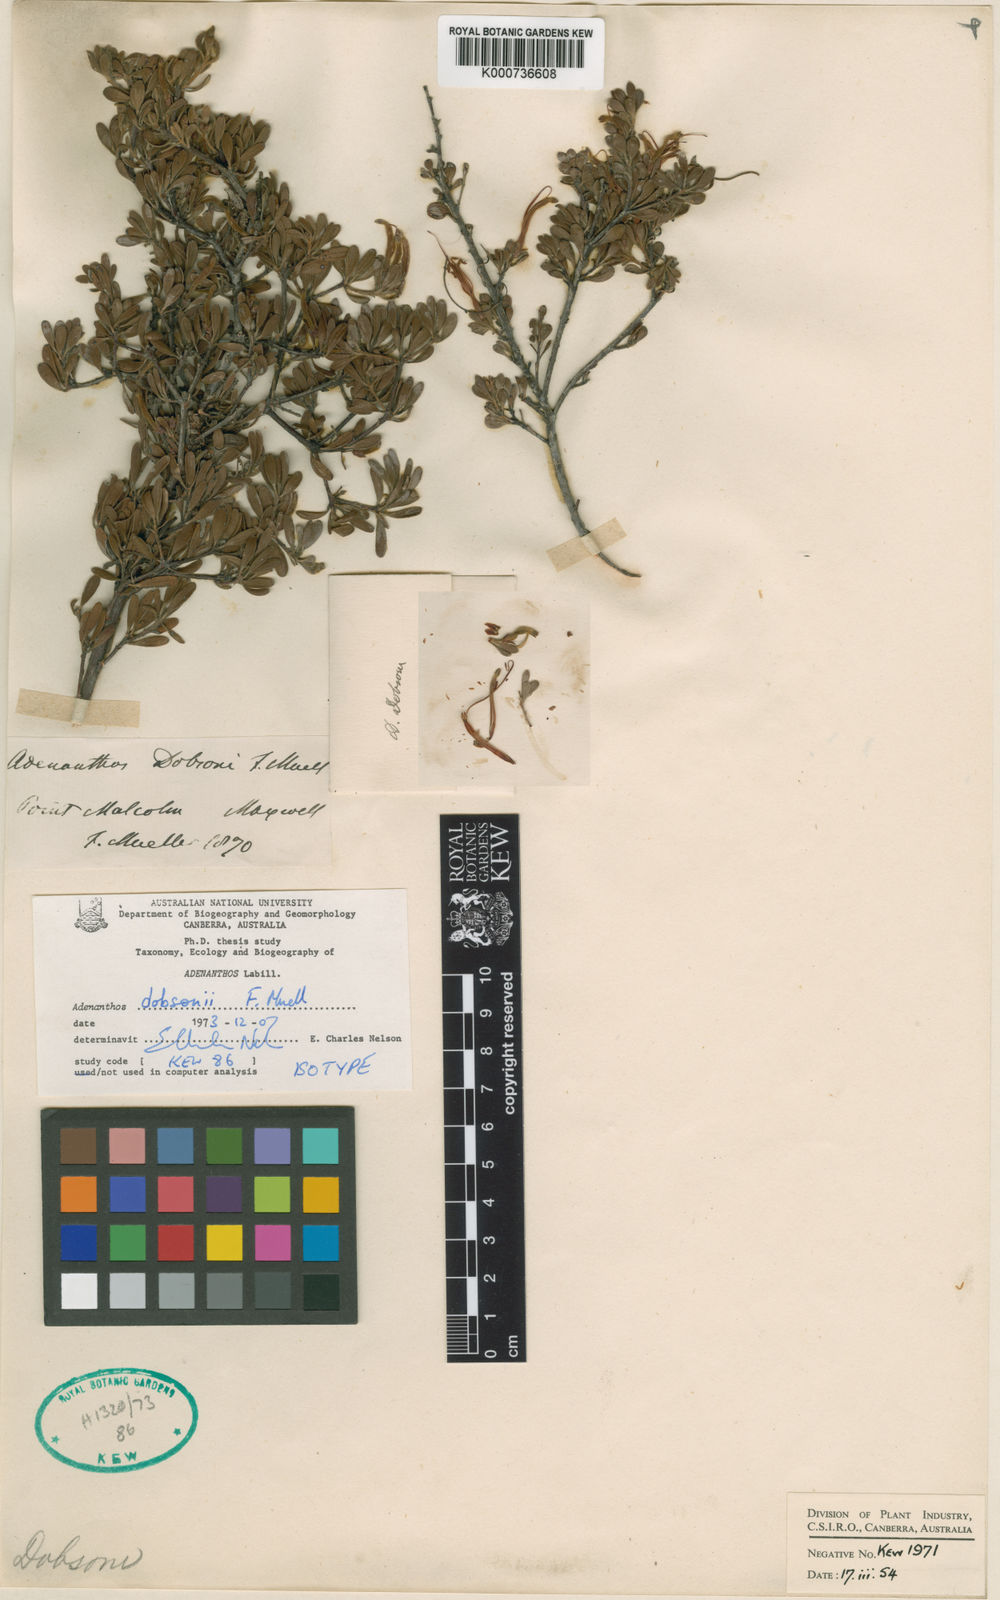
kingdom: Plantae
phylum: Tracheophyta
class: Magnoliopsida
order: Proteales
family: Proteaceae
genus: Adenanthos
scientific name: Adenanthos dobsonii
